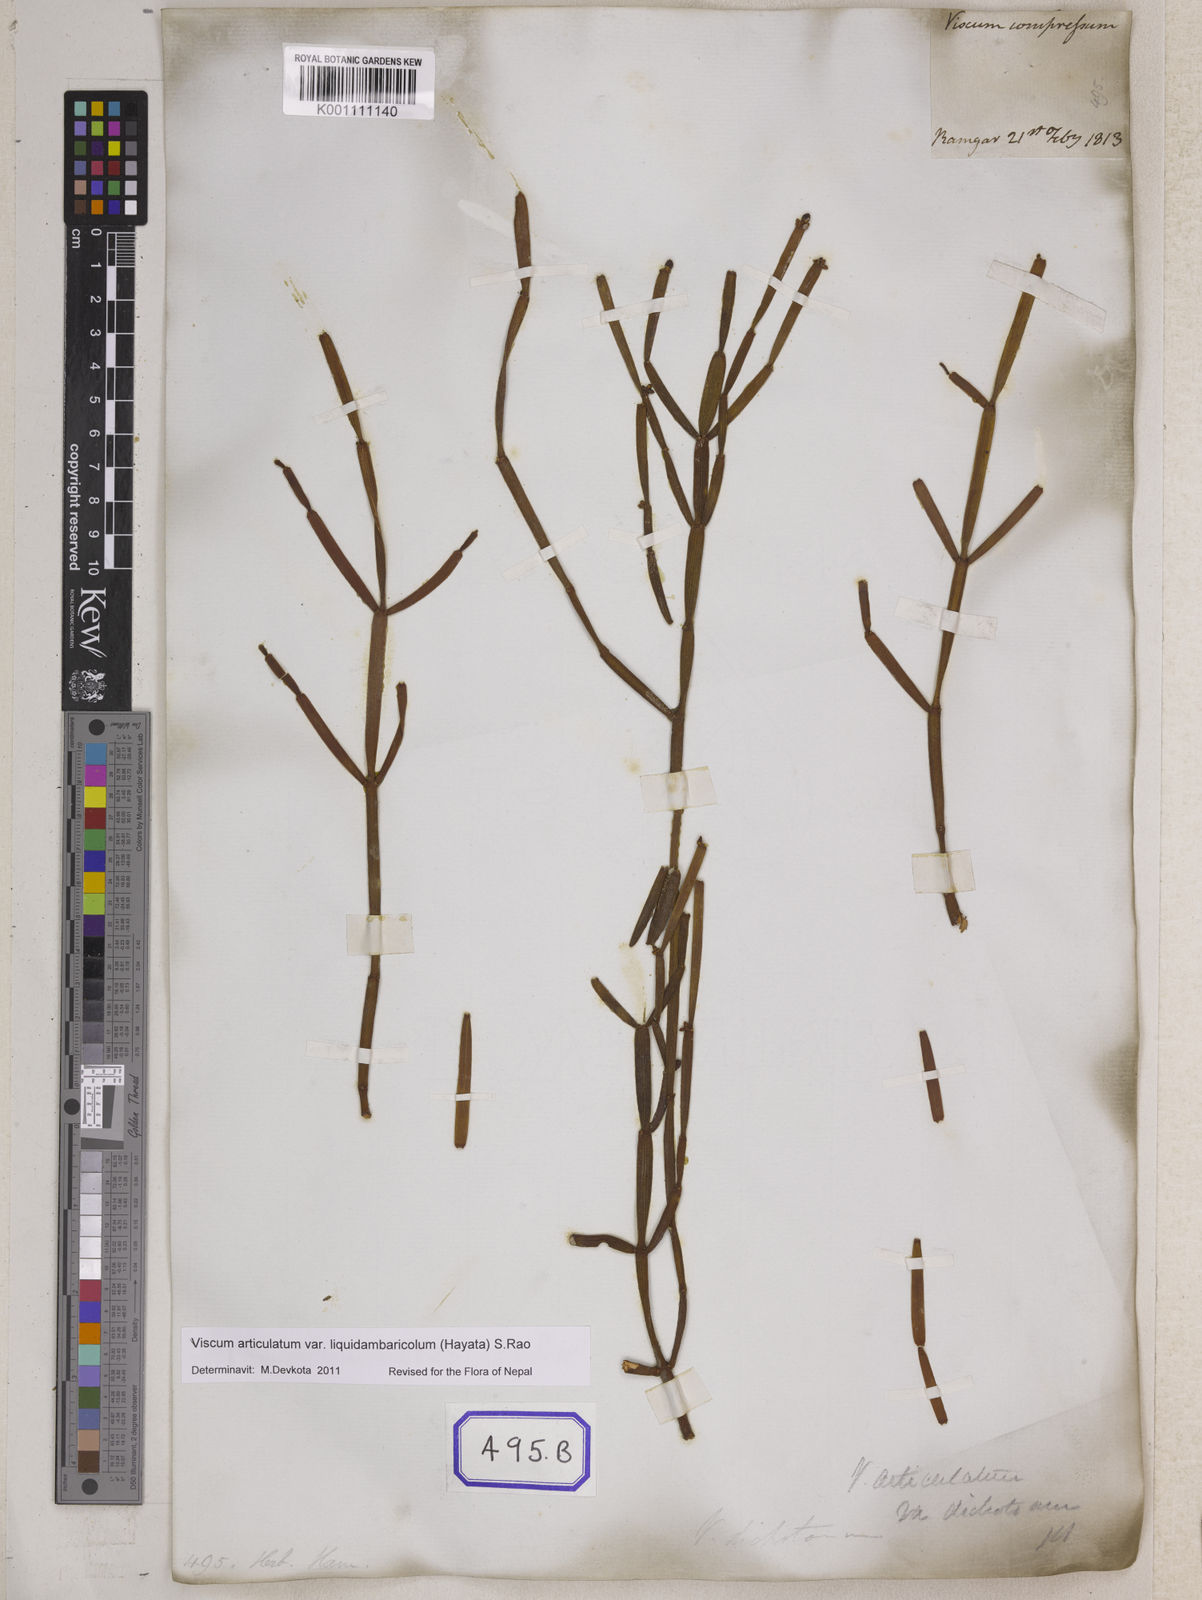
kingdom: Plantae
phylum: Tracheophyta
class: Magnoliopsida
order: Santalales
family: Viscaceae
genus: Viscum
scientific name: Viscum
